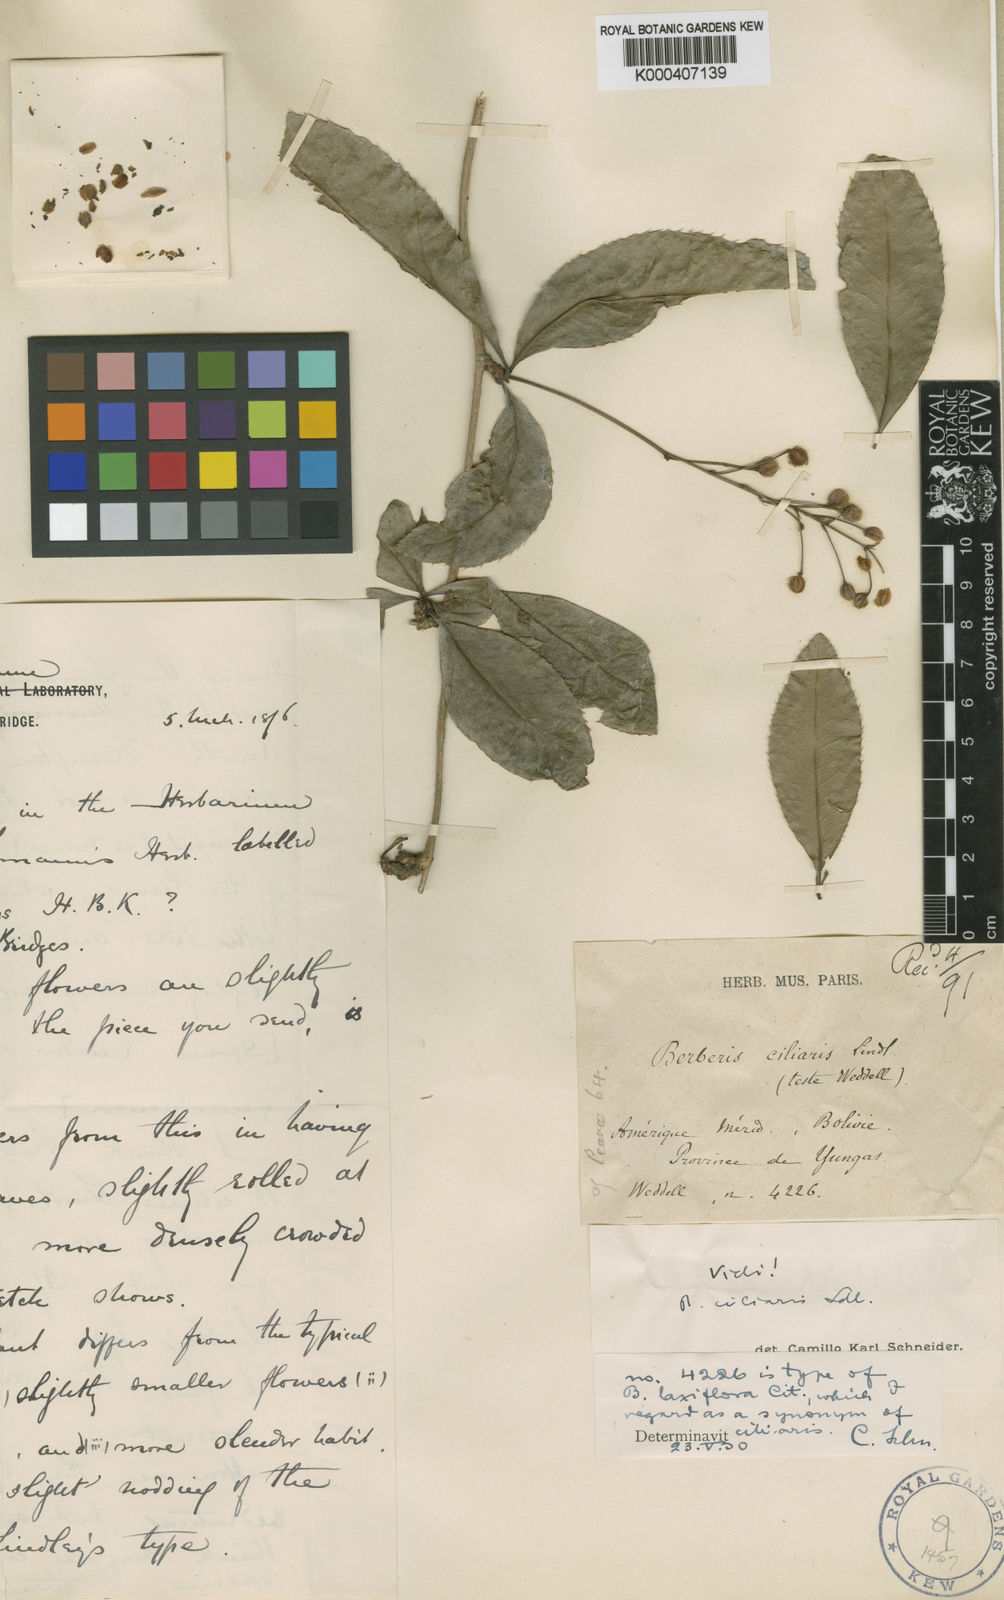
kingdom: Plantae
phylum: Tracheophyta
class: Magnoliopsida
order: Ranunculales
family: Berberidaceae
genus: Berberis
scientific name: Berberis ciliaris
